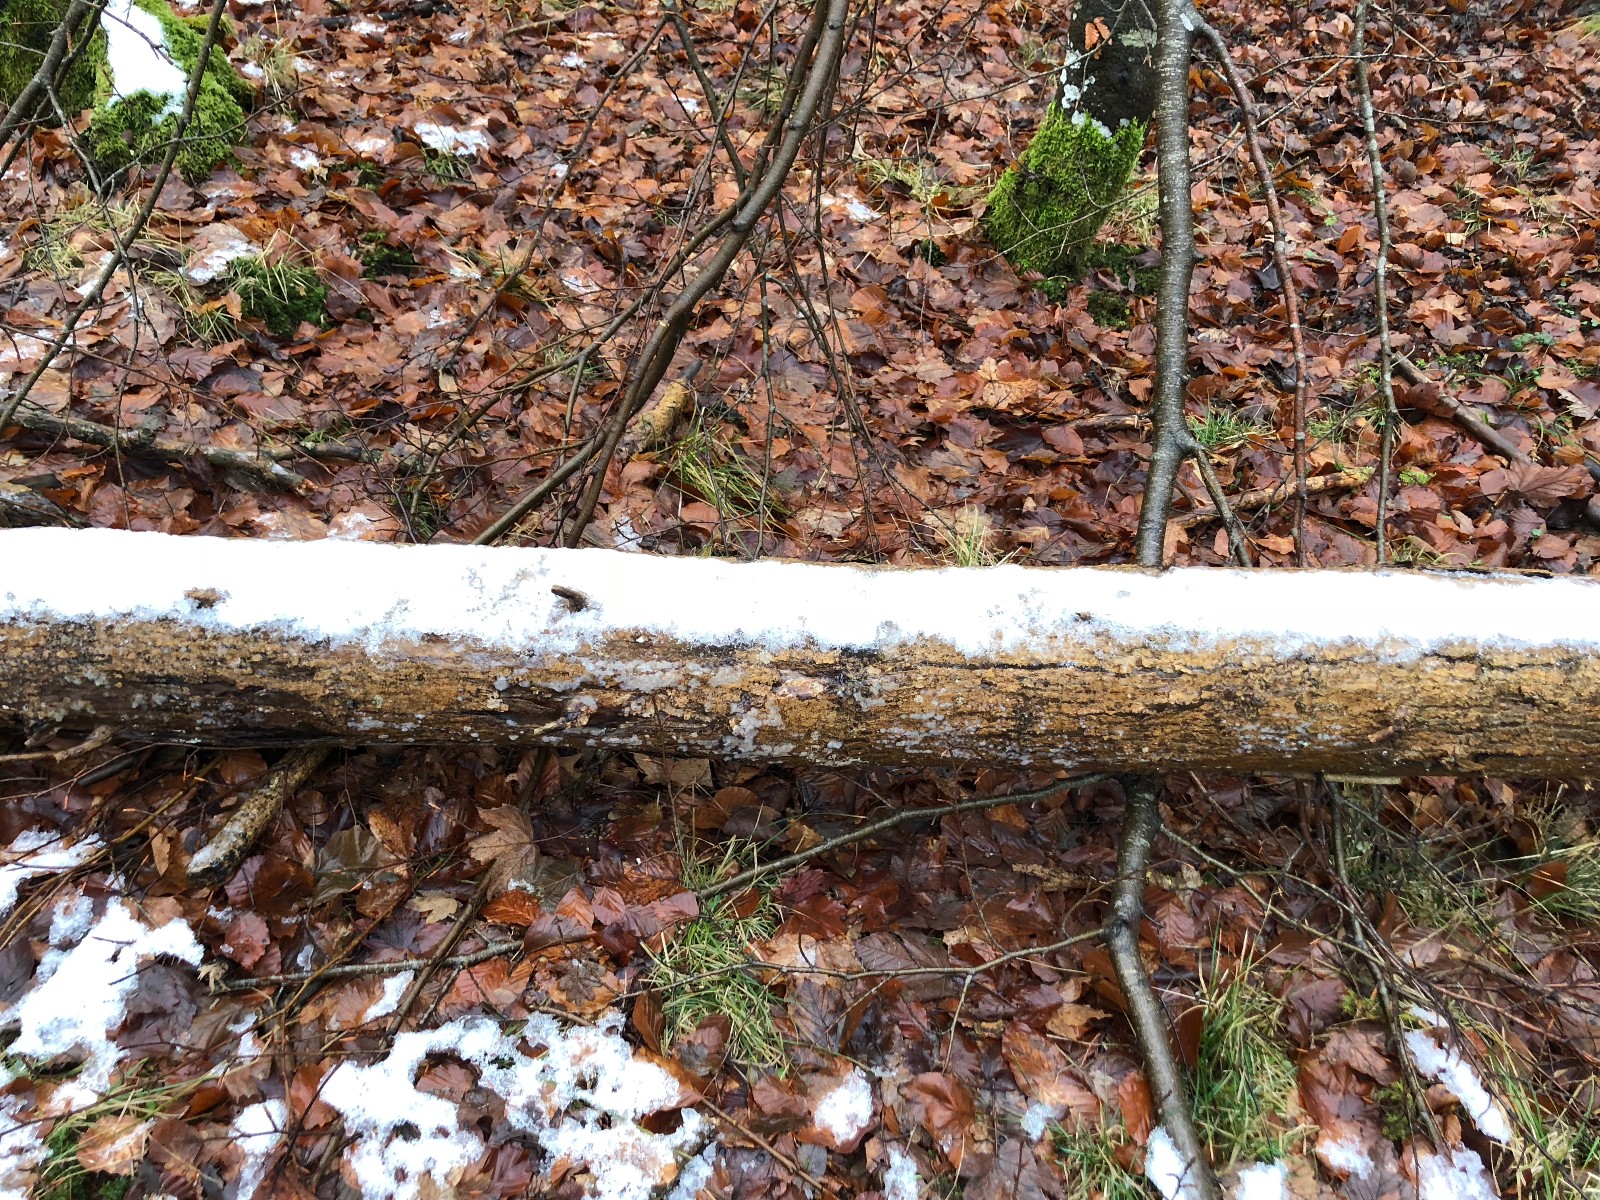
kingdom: Fungi
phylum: Basidiomycota
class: Agaricomycetes
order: Auriculariales
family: Auriculariaceae
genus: Exidia
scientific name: Exidia thuretiana
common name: hvidlig bævretop
